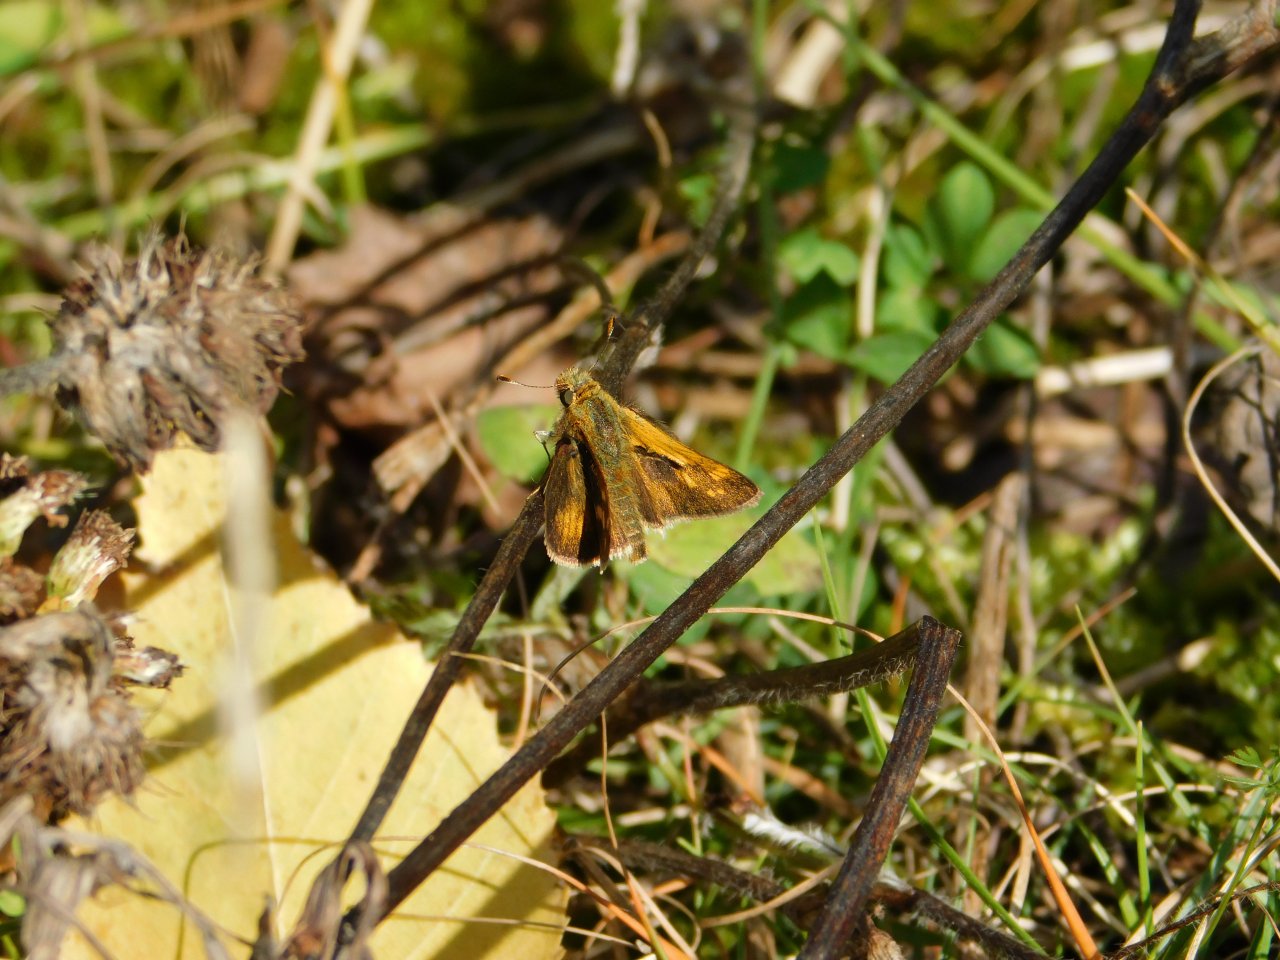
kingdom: Animalia
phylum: Arthropoda
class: Insecta
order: Lepidoptera
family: Hesperiidae
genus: Polites
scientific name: Polites coras
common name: Peck's Skipper
